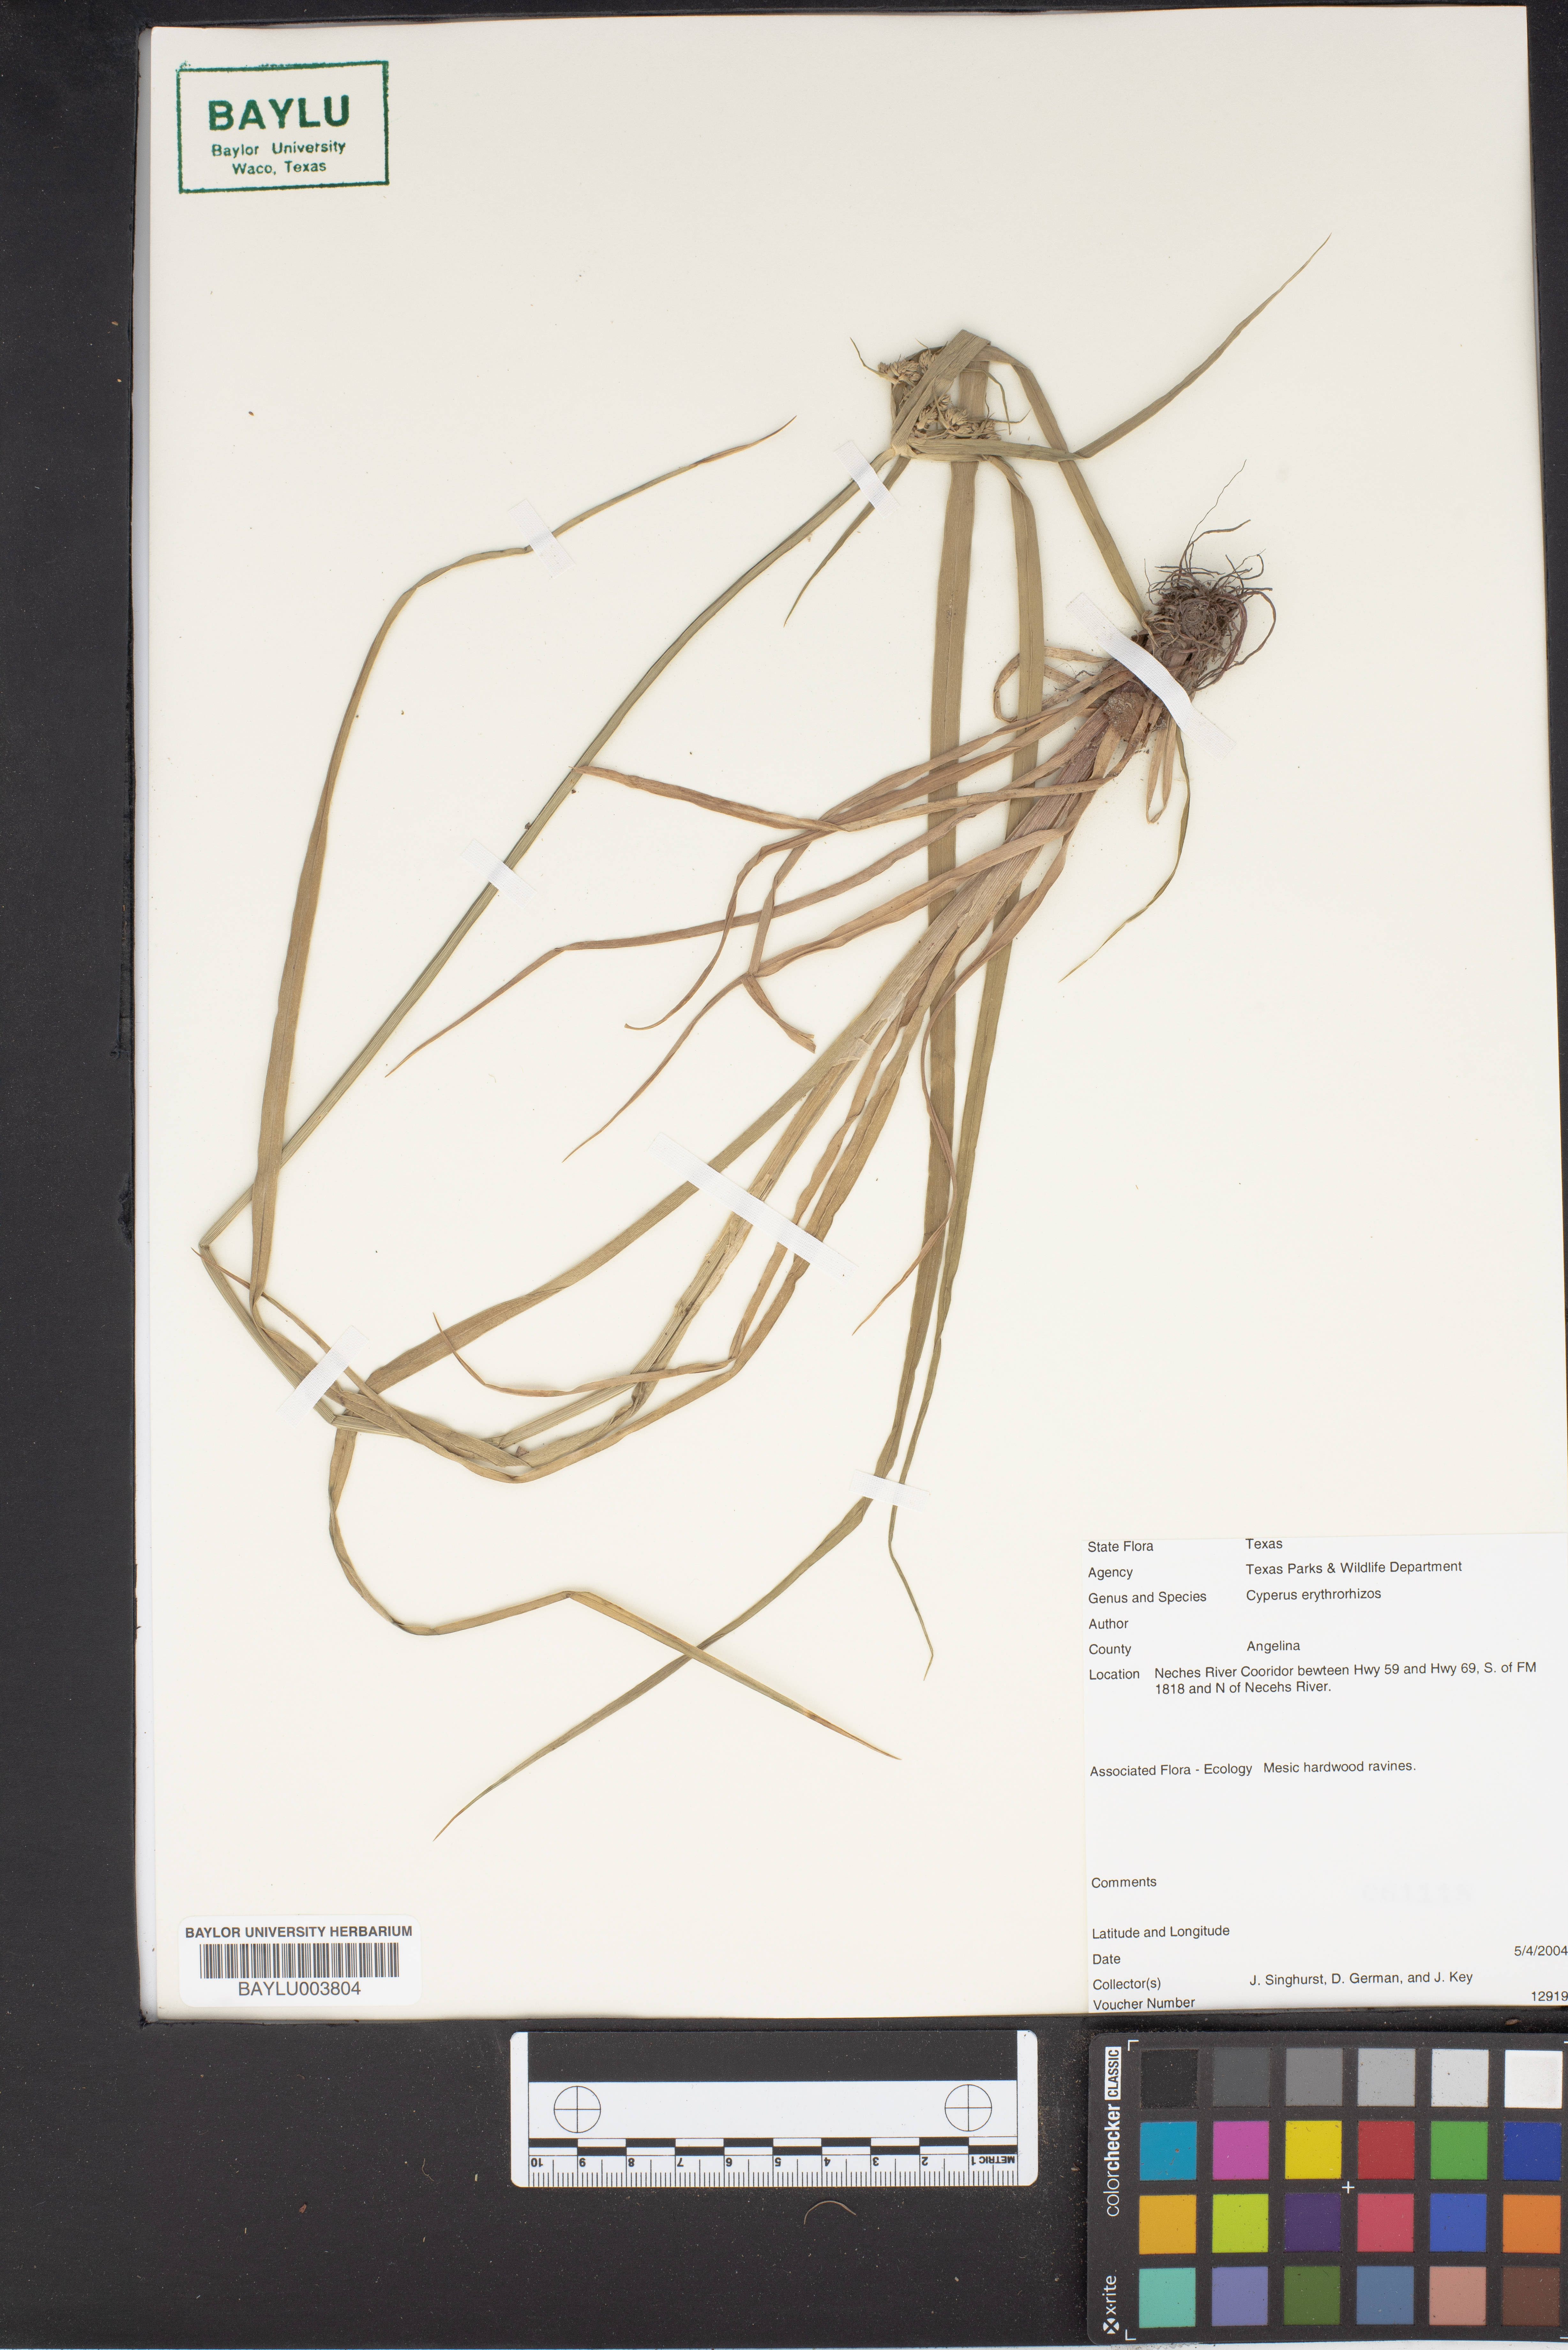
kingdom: Plantae
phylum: Tracheophyta
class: Liliopsida
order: Poales
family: Cyperaceae
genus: Cyperus
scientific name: Cyperus erythrorhizos
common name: Red-root flat sedge
